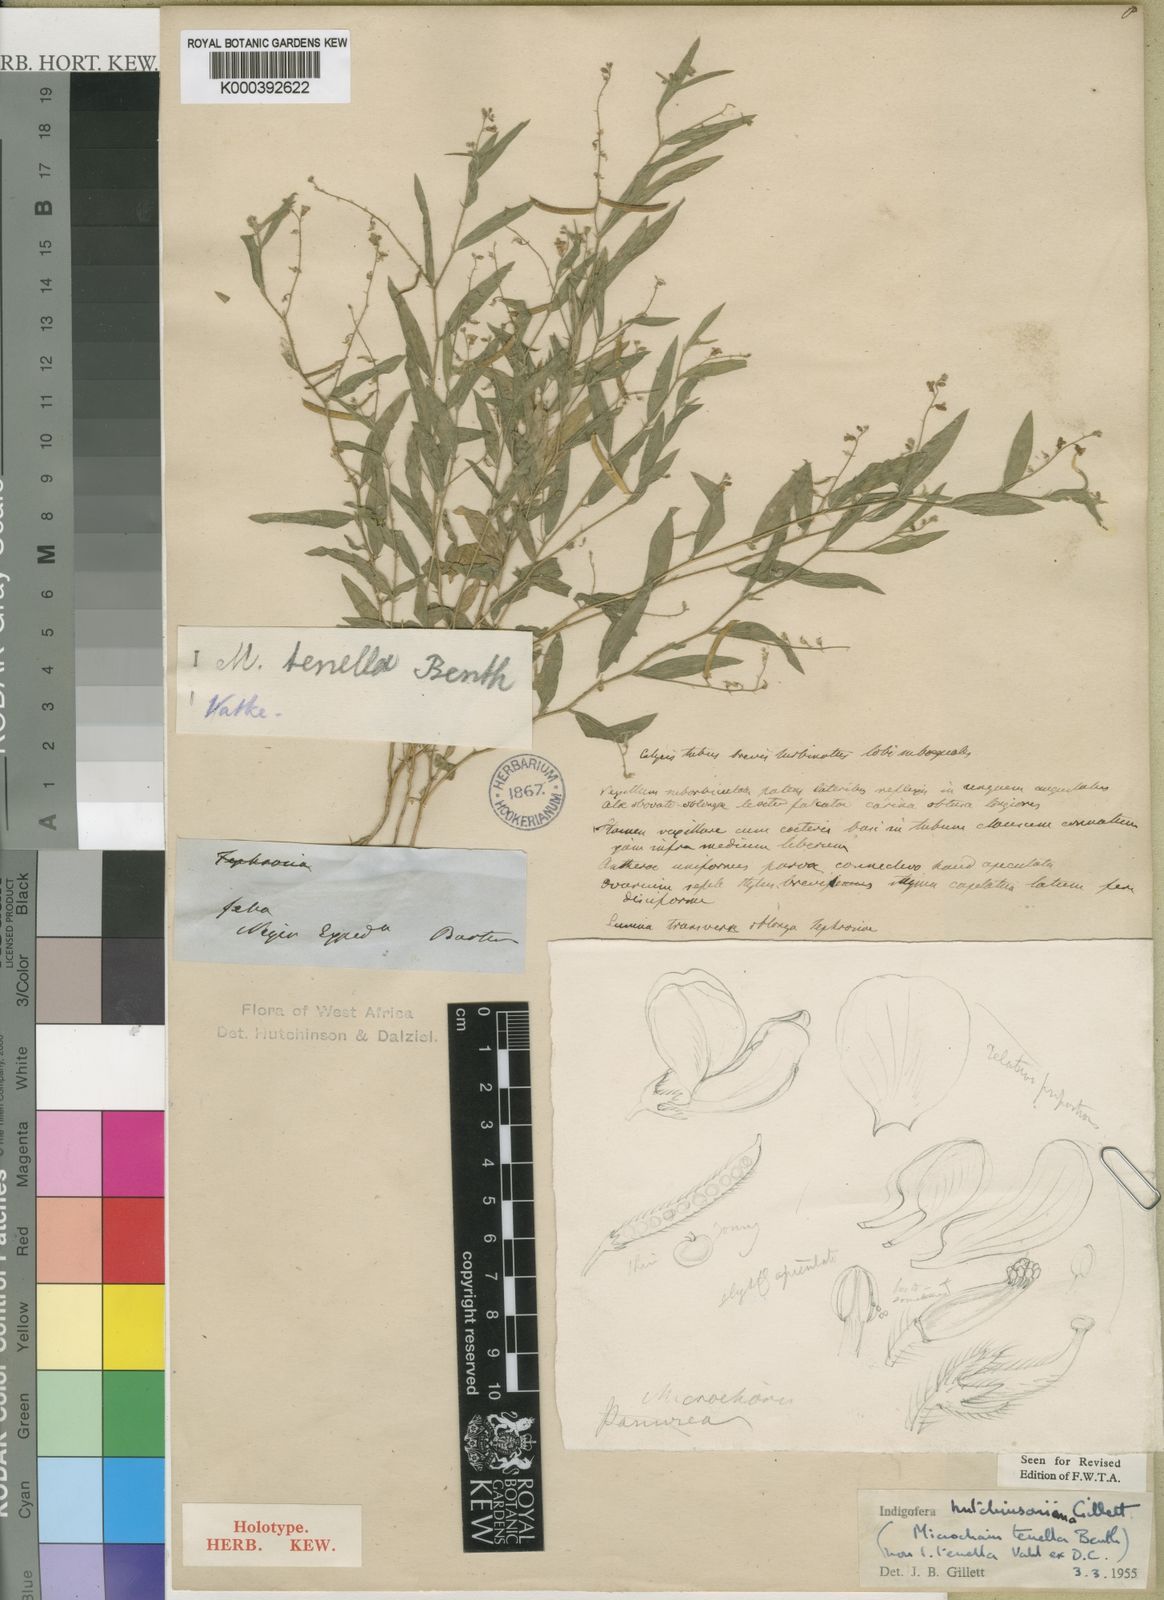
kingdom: Plantae
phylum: Tracheophyta
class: Magnoliopsida
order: Fabales
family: Fabaceae
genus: Microcharis
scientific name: Microcharis tenella
